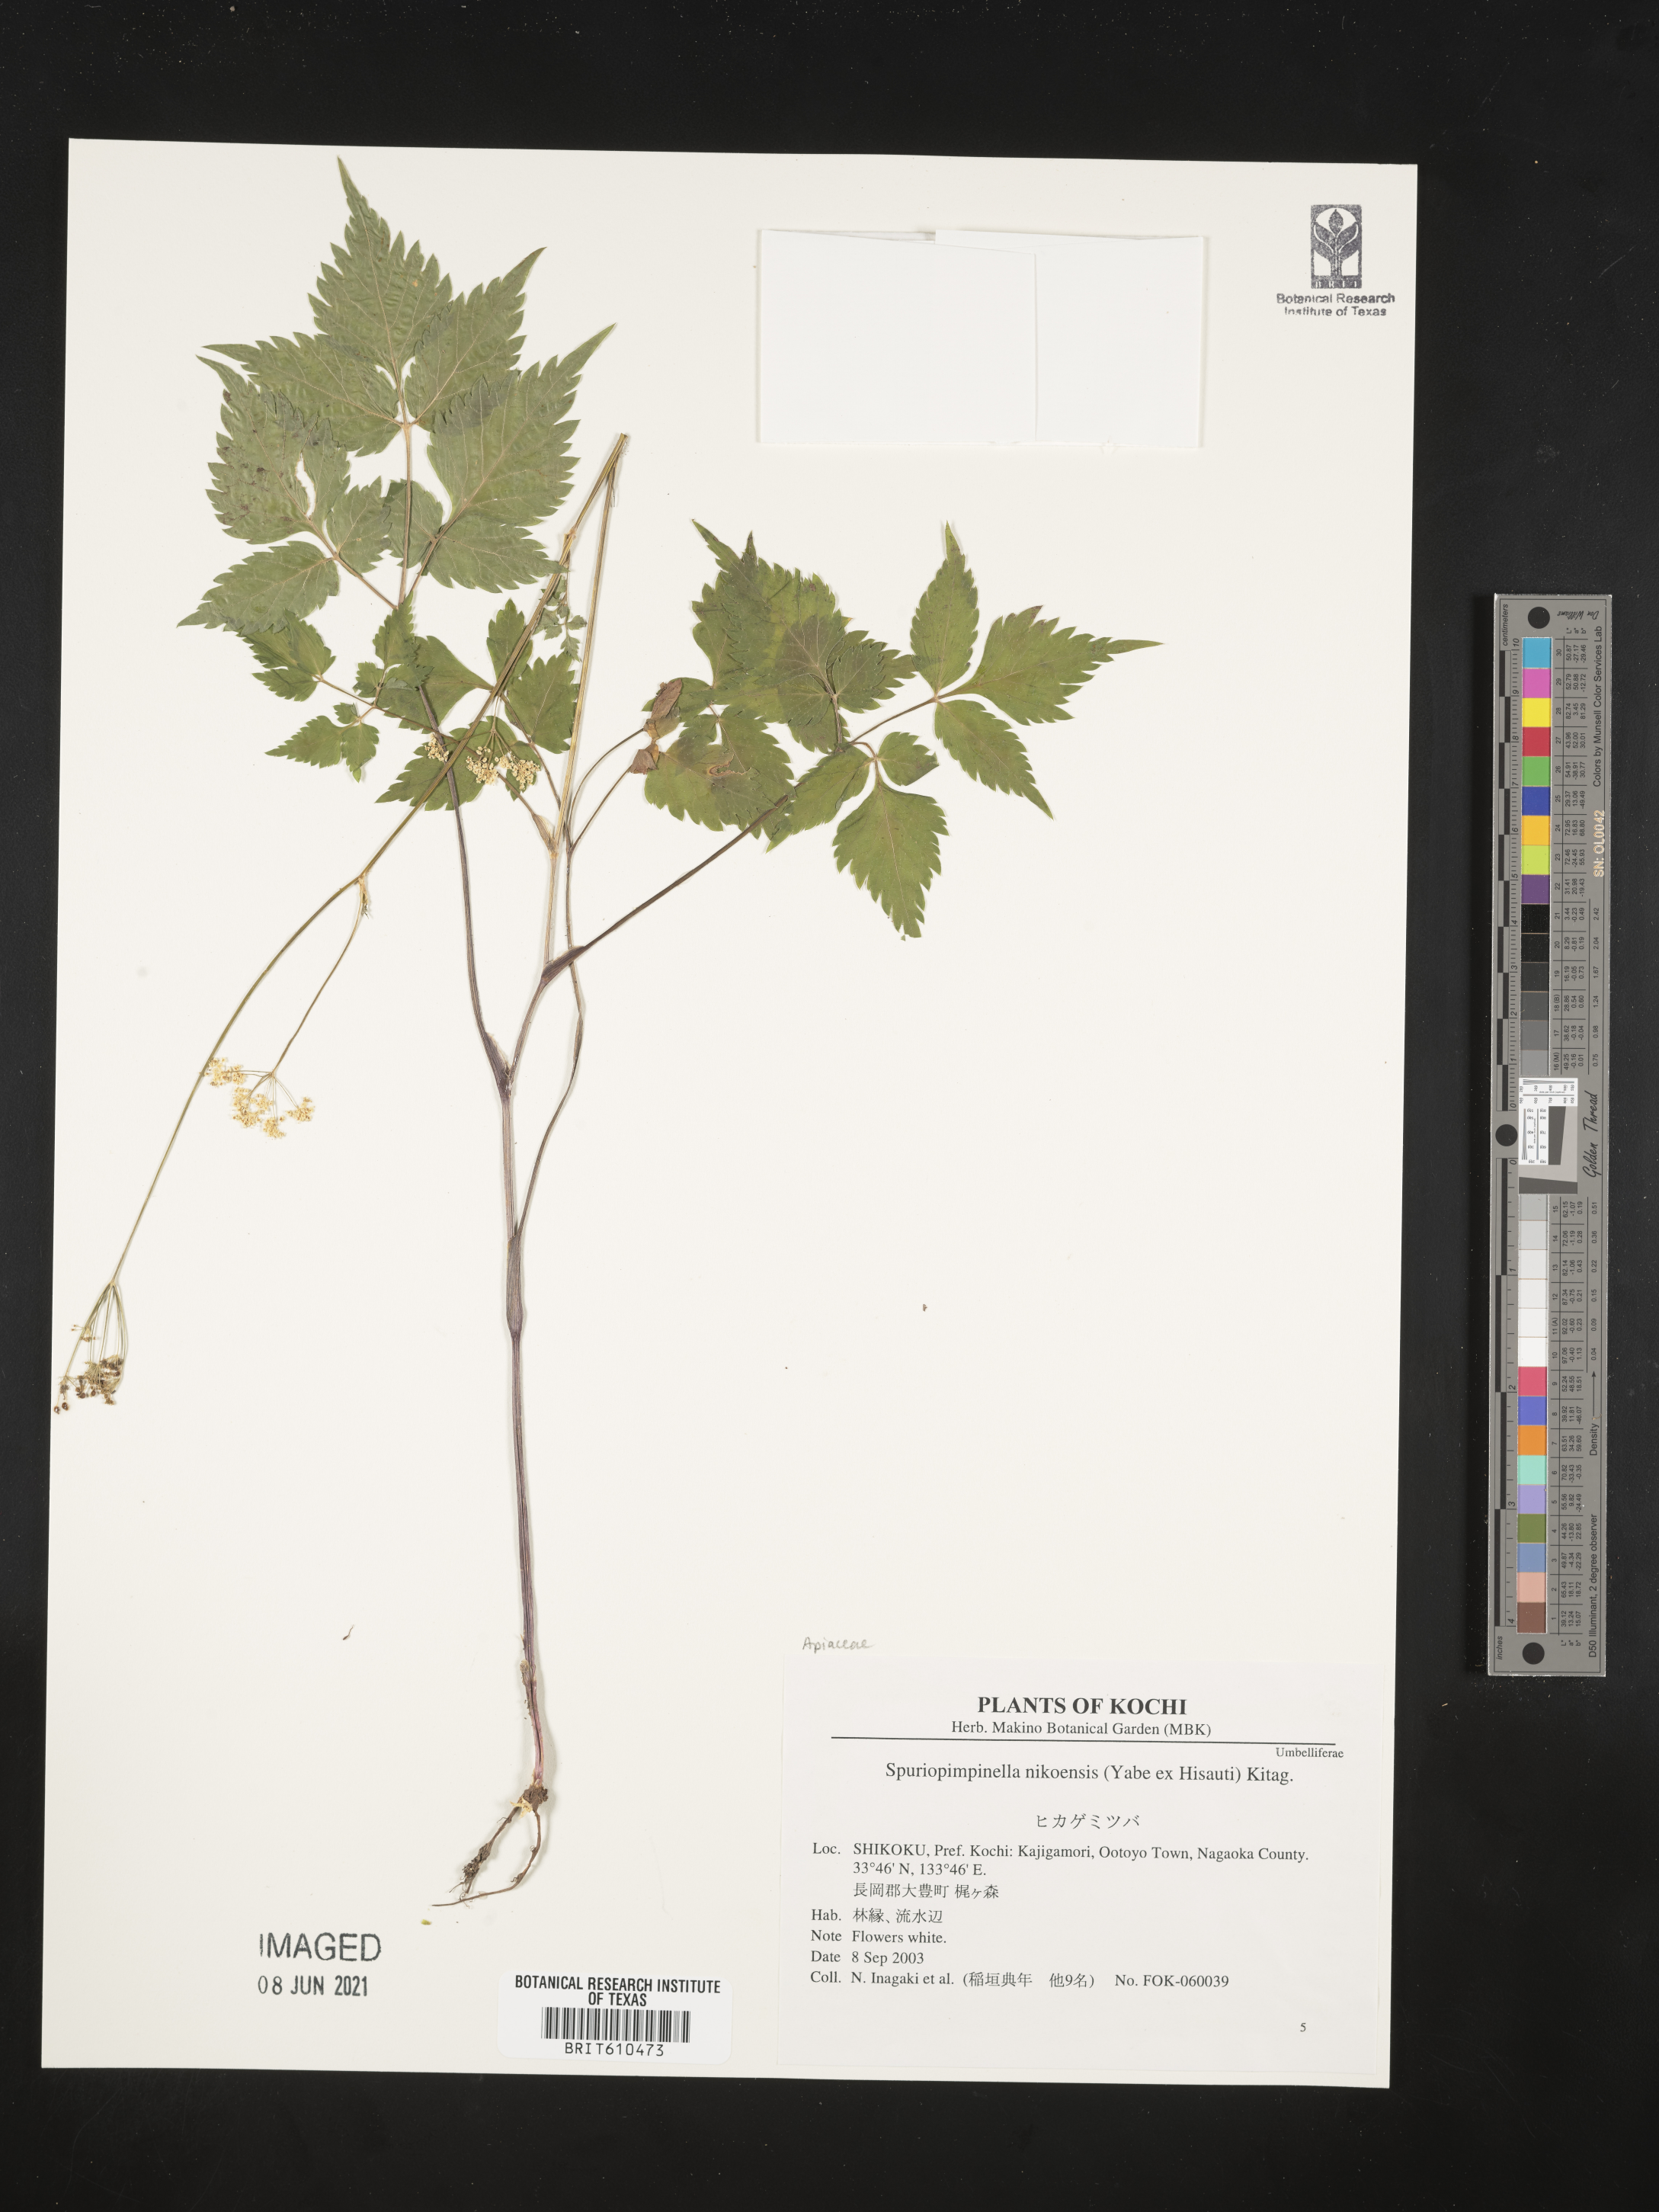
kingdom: Plantae
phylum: Tracheophyta
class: Magnoliopsida
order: Apiales
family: Apiaceae
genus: Spuriopimpinella
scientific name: Spuriopimpinella brachycarpa
